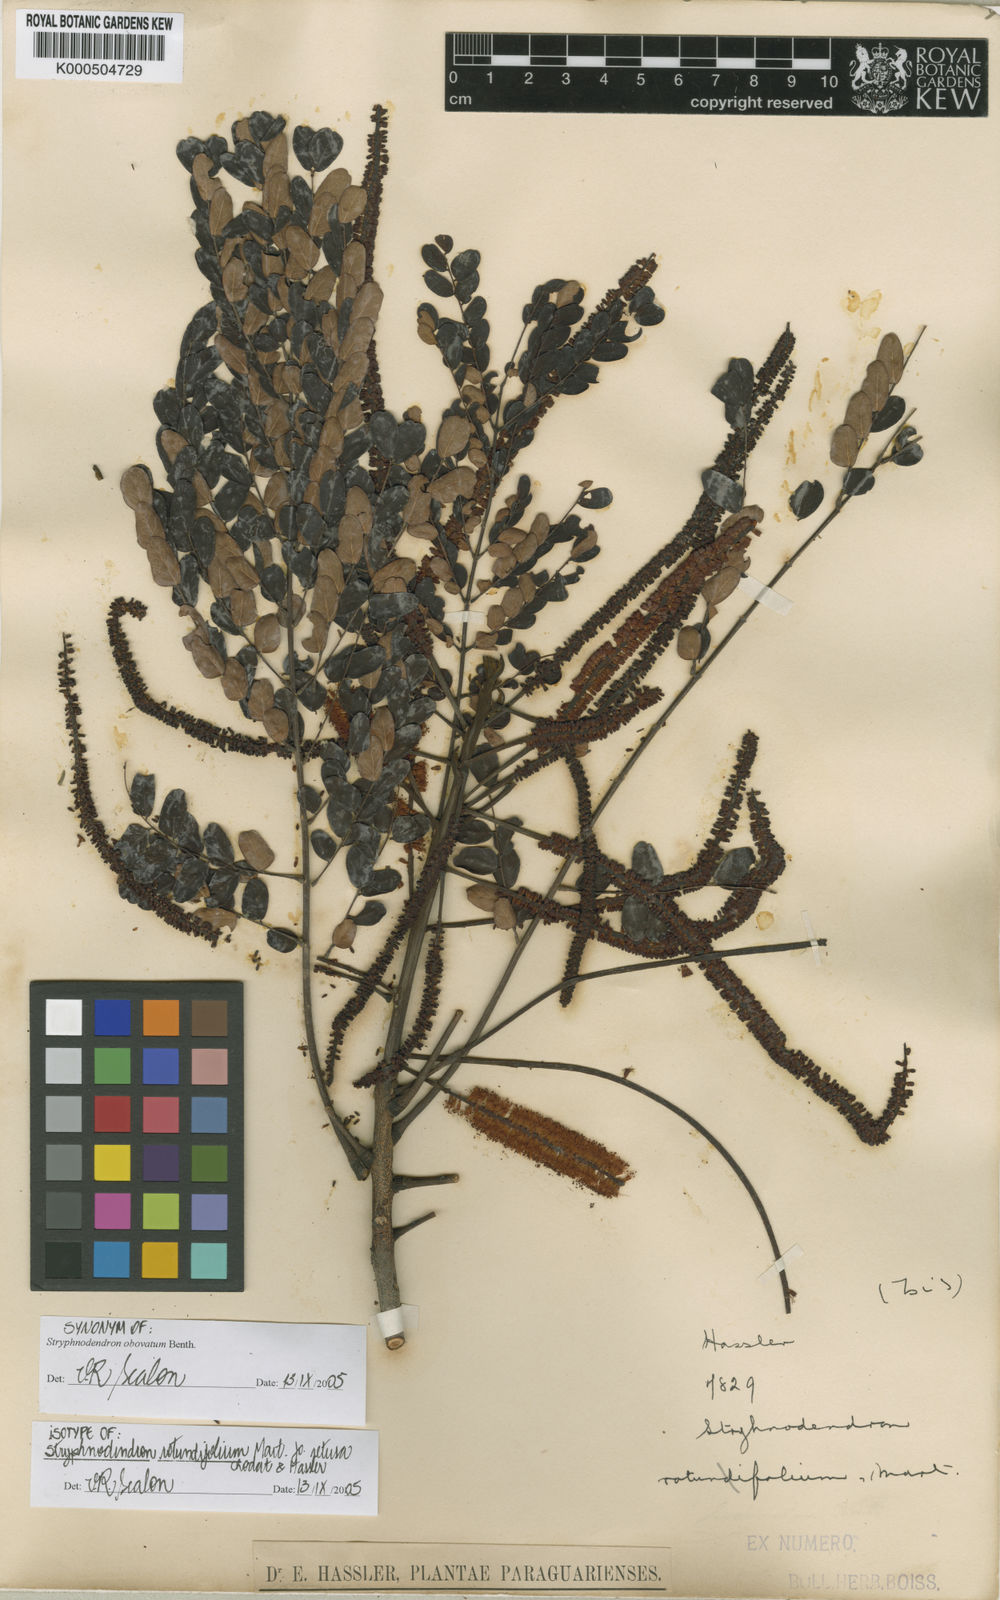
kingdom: Plantae
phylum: Tracheophyta
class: Magnoliopsida
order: Fabales
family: Fabaceae
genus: Stryphnodendron
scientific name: Stryphnodendron rotundifolium
